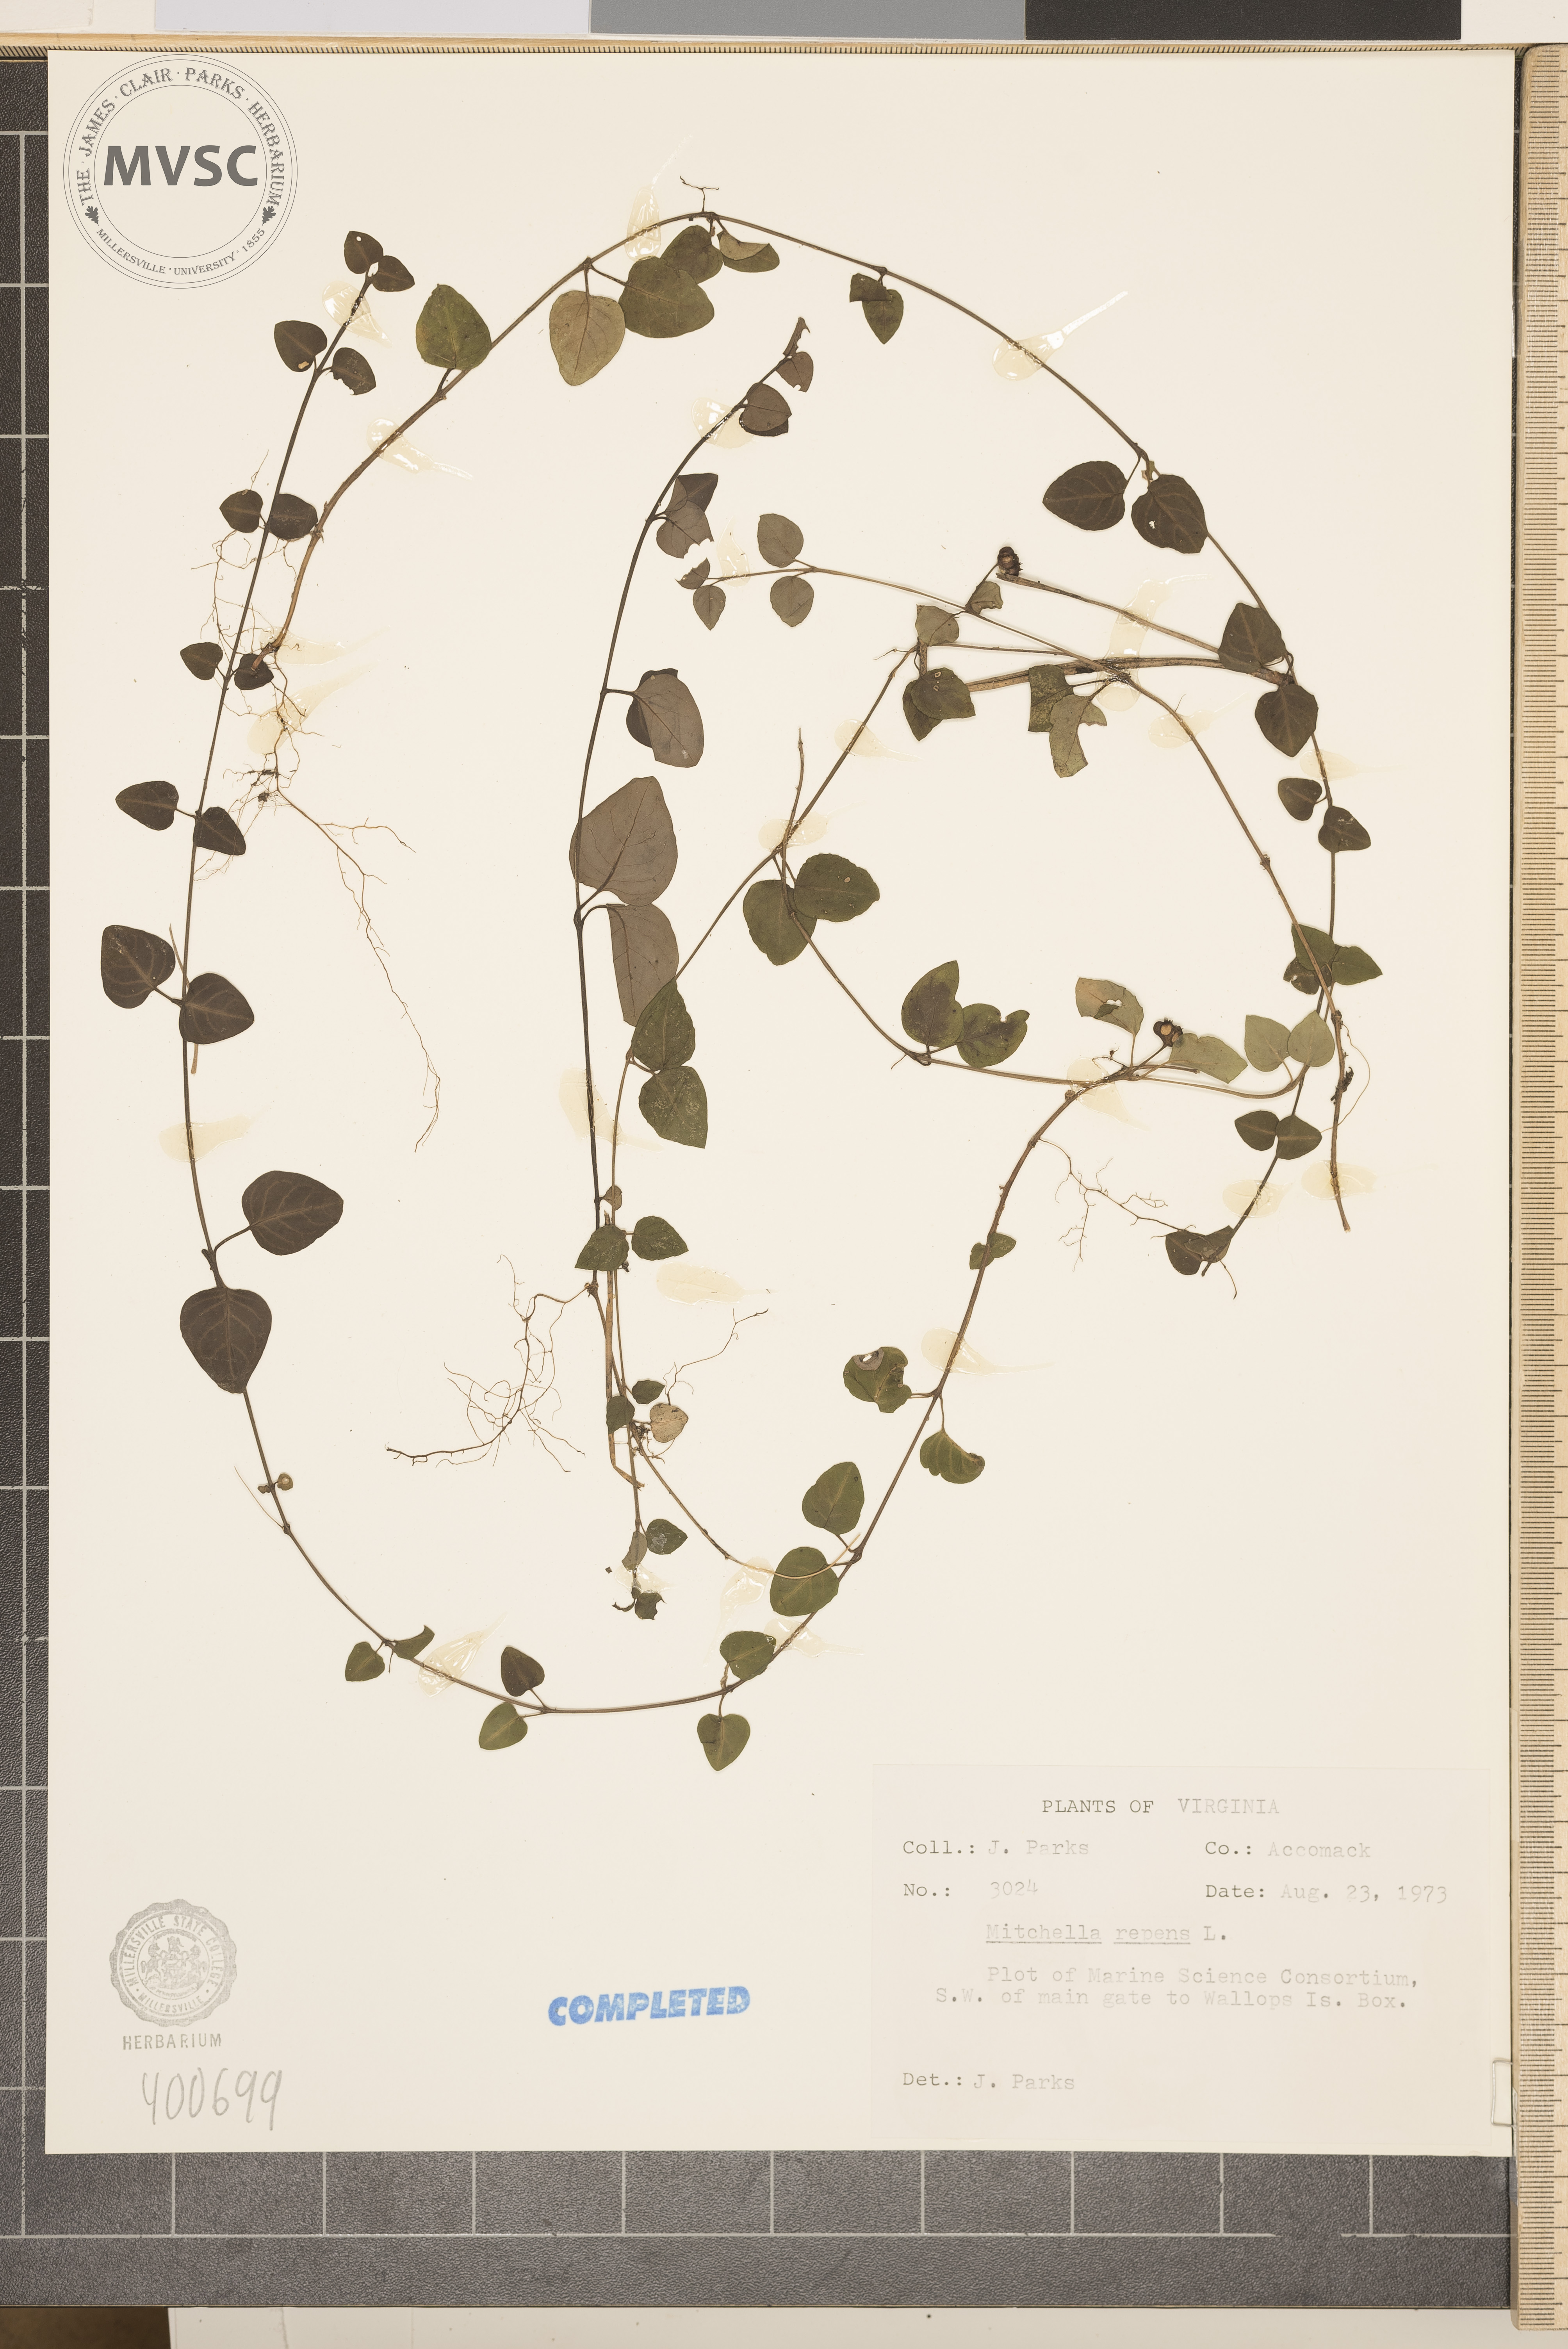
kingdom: Plantae
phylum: Tracheophyta
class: Magnoliopsida
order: Gentianales
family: Rubiaceae
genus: Mitchella
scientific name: Mitchella repens
